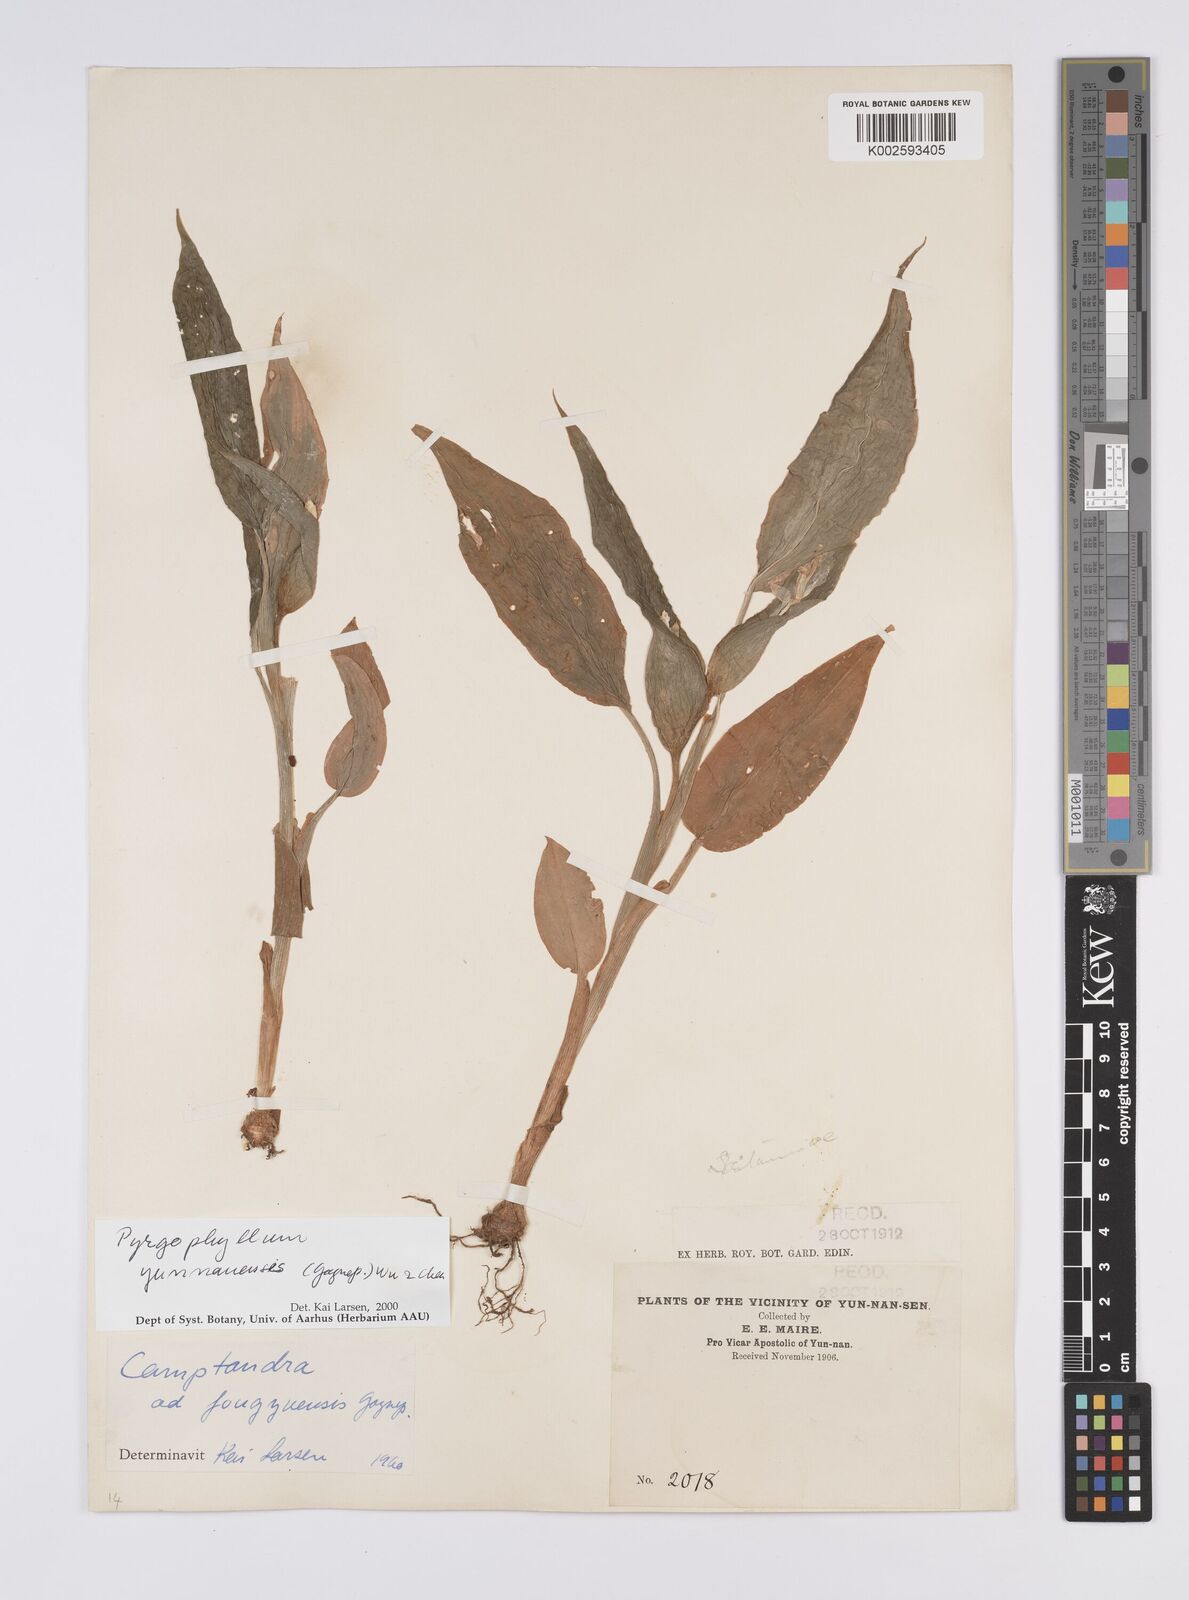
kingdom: Plantae
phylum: Tracheophyta
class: Liliopsida
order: Zingiberales
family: Zingiberaceae
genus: Pyrgophyllum
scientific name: Pyrgophyllum yunnanense
